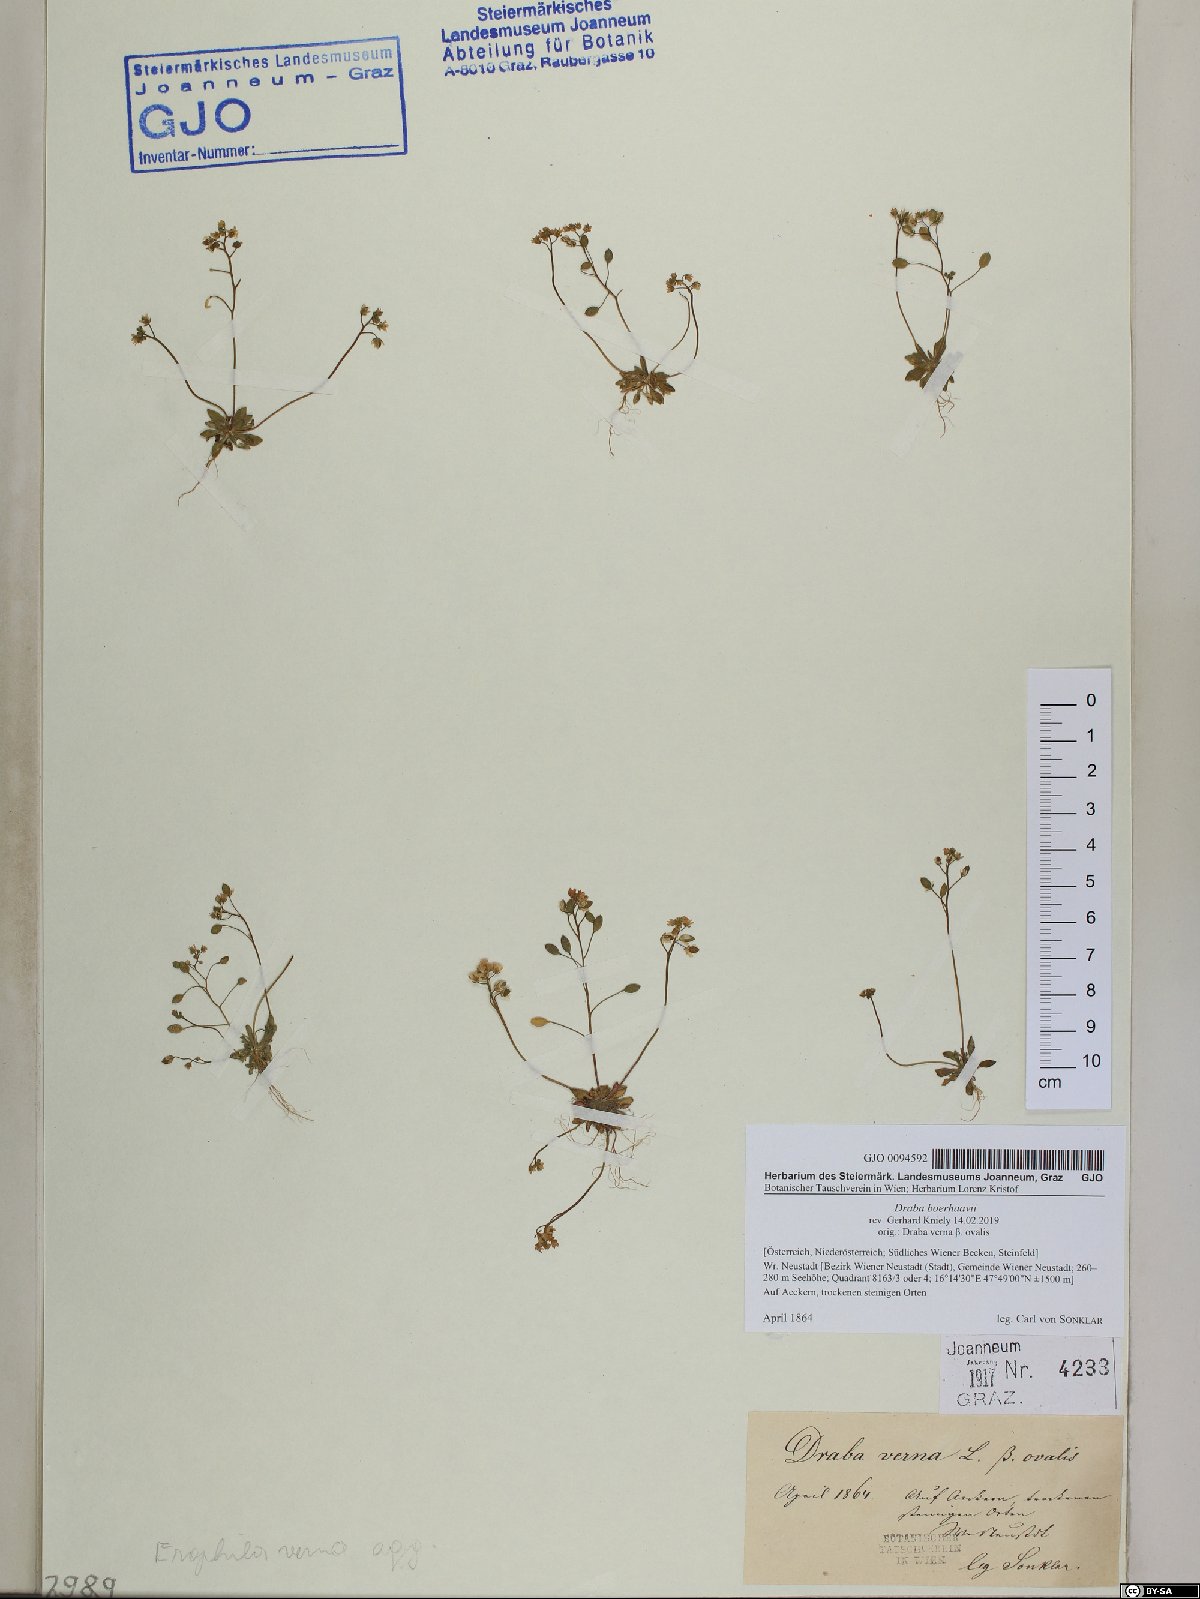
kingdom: Plantae
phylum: Tracheophyta
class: Magnoliopsida
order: Brassicales
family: Brassicaceae
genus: Draba
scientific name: Draba verna
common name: Spring draba
